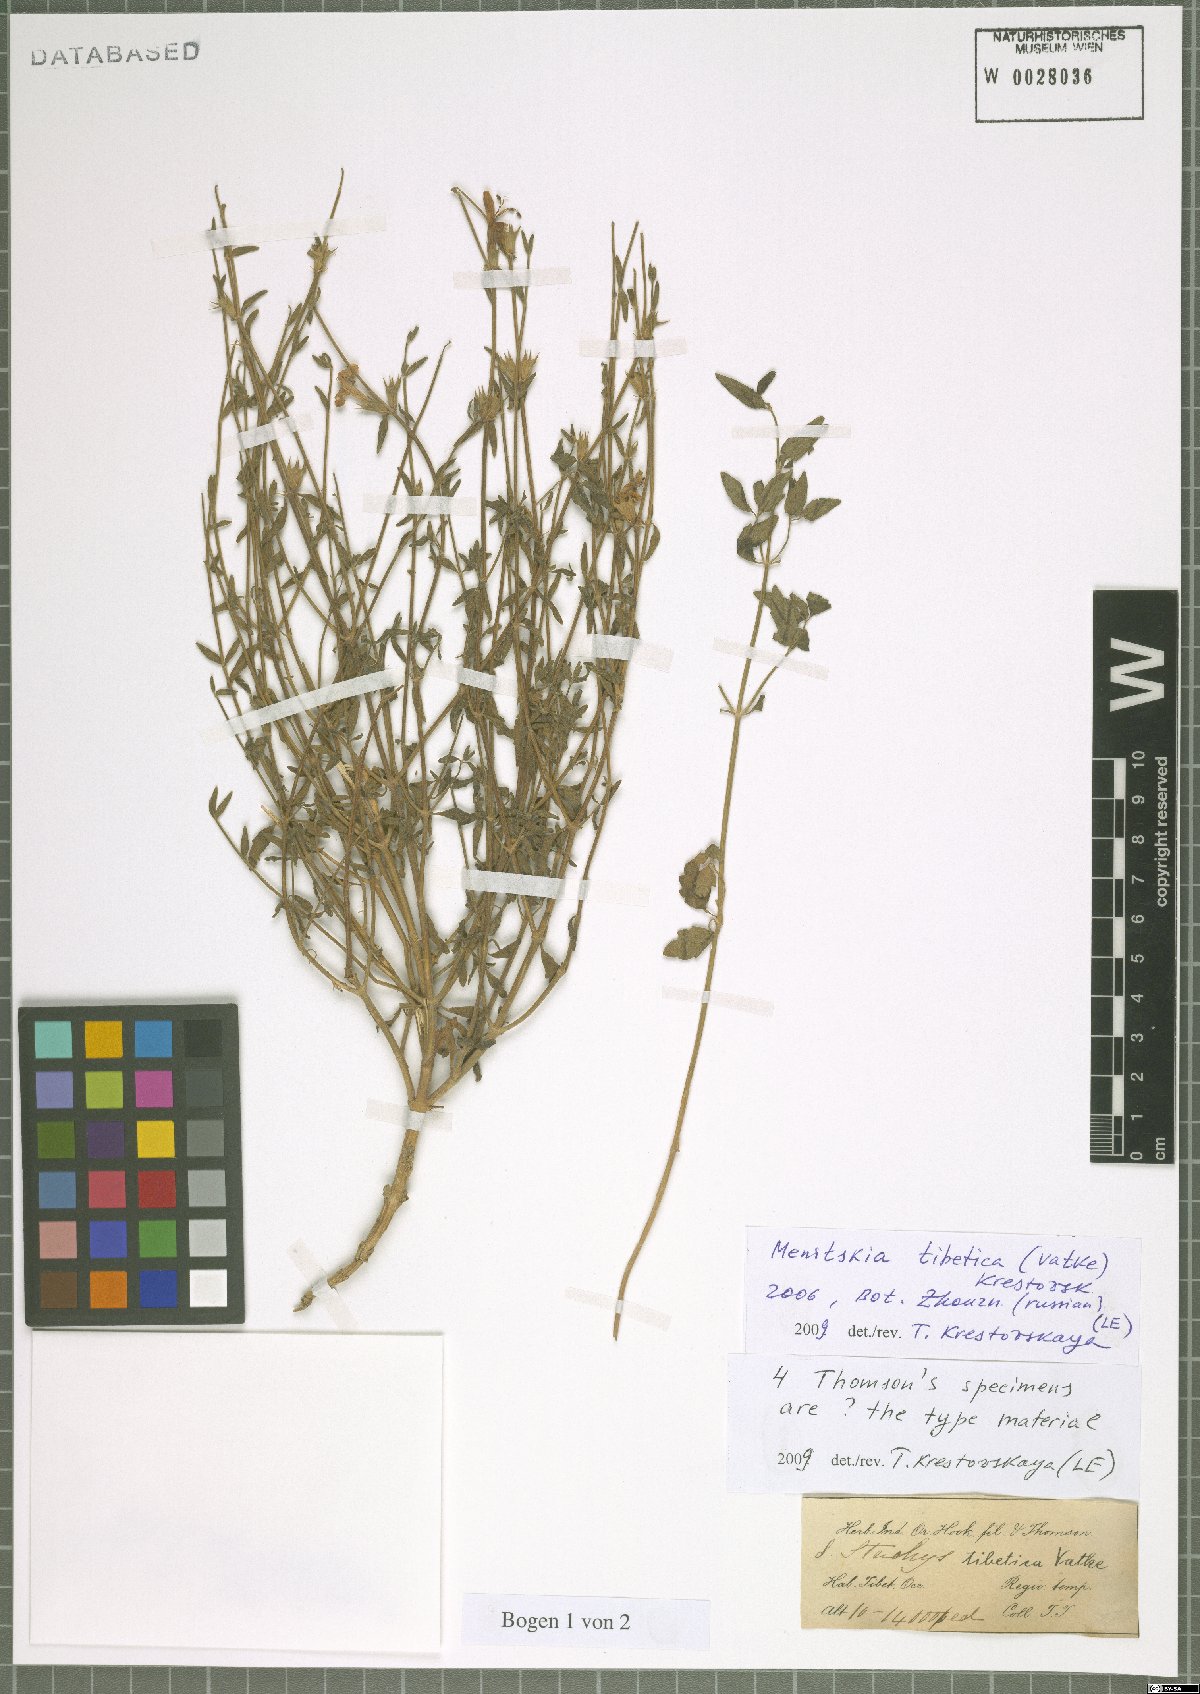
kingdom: Plantae
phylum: Tracheophyta
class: Magnoliopsida
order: Lamiales
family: Lamiaceae
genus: Eriophyton
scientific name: Eriophyton tibeticum
